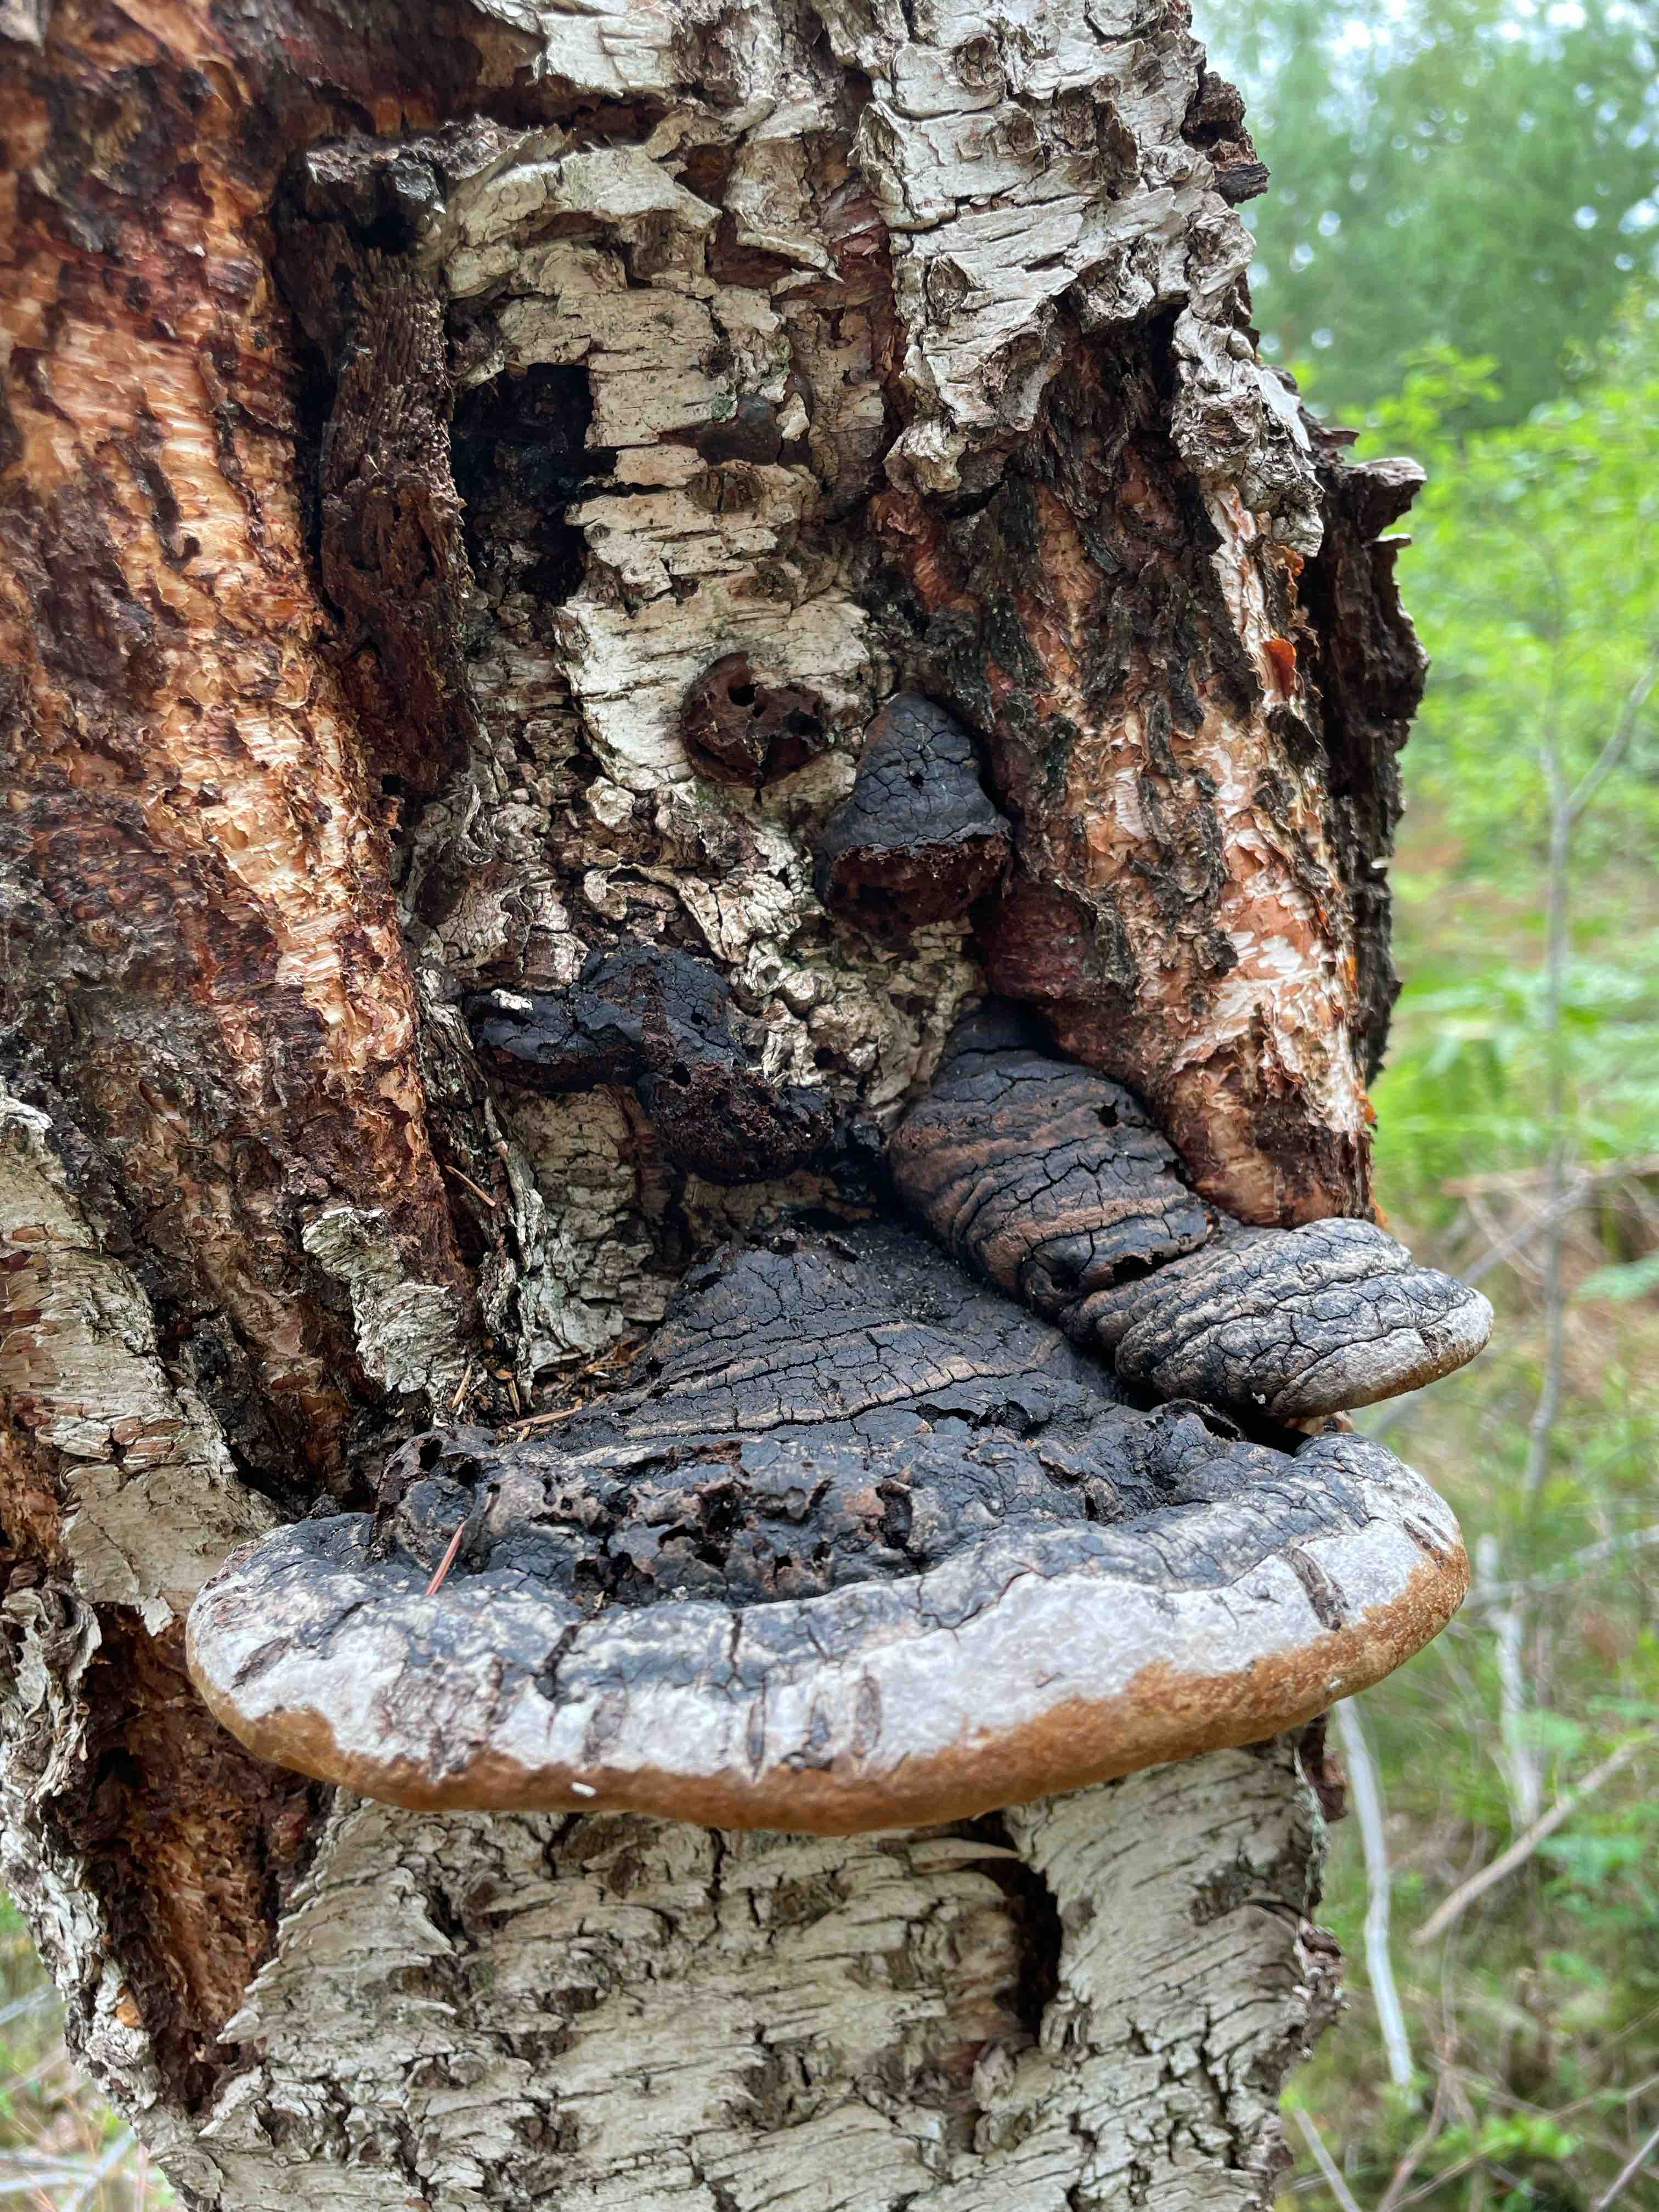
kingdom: Fungi
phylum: Basidiomycota
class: Agaricomycetes
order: Hymenochaetales
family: Hymenochaetaceae
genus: Phellinus
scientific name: Phellinus
